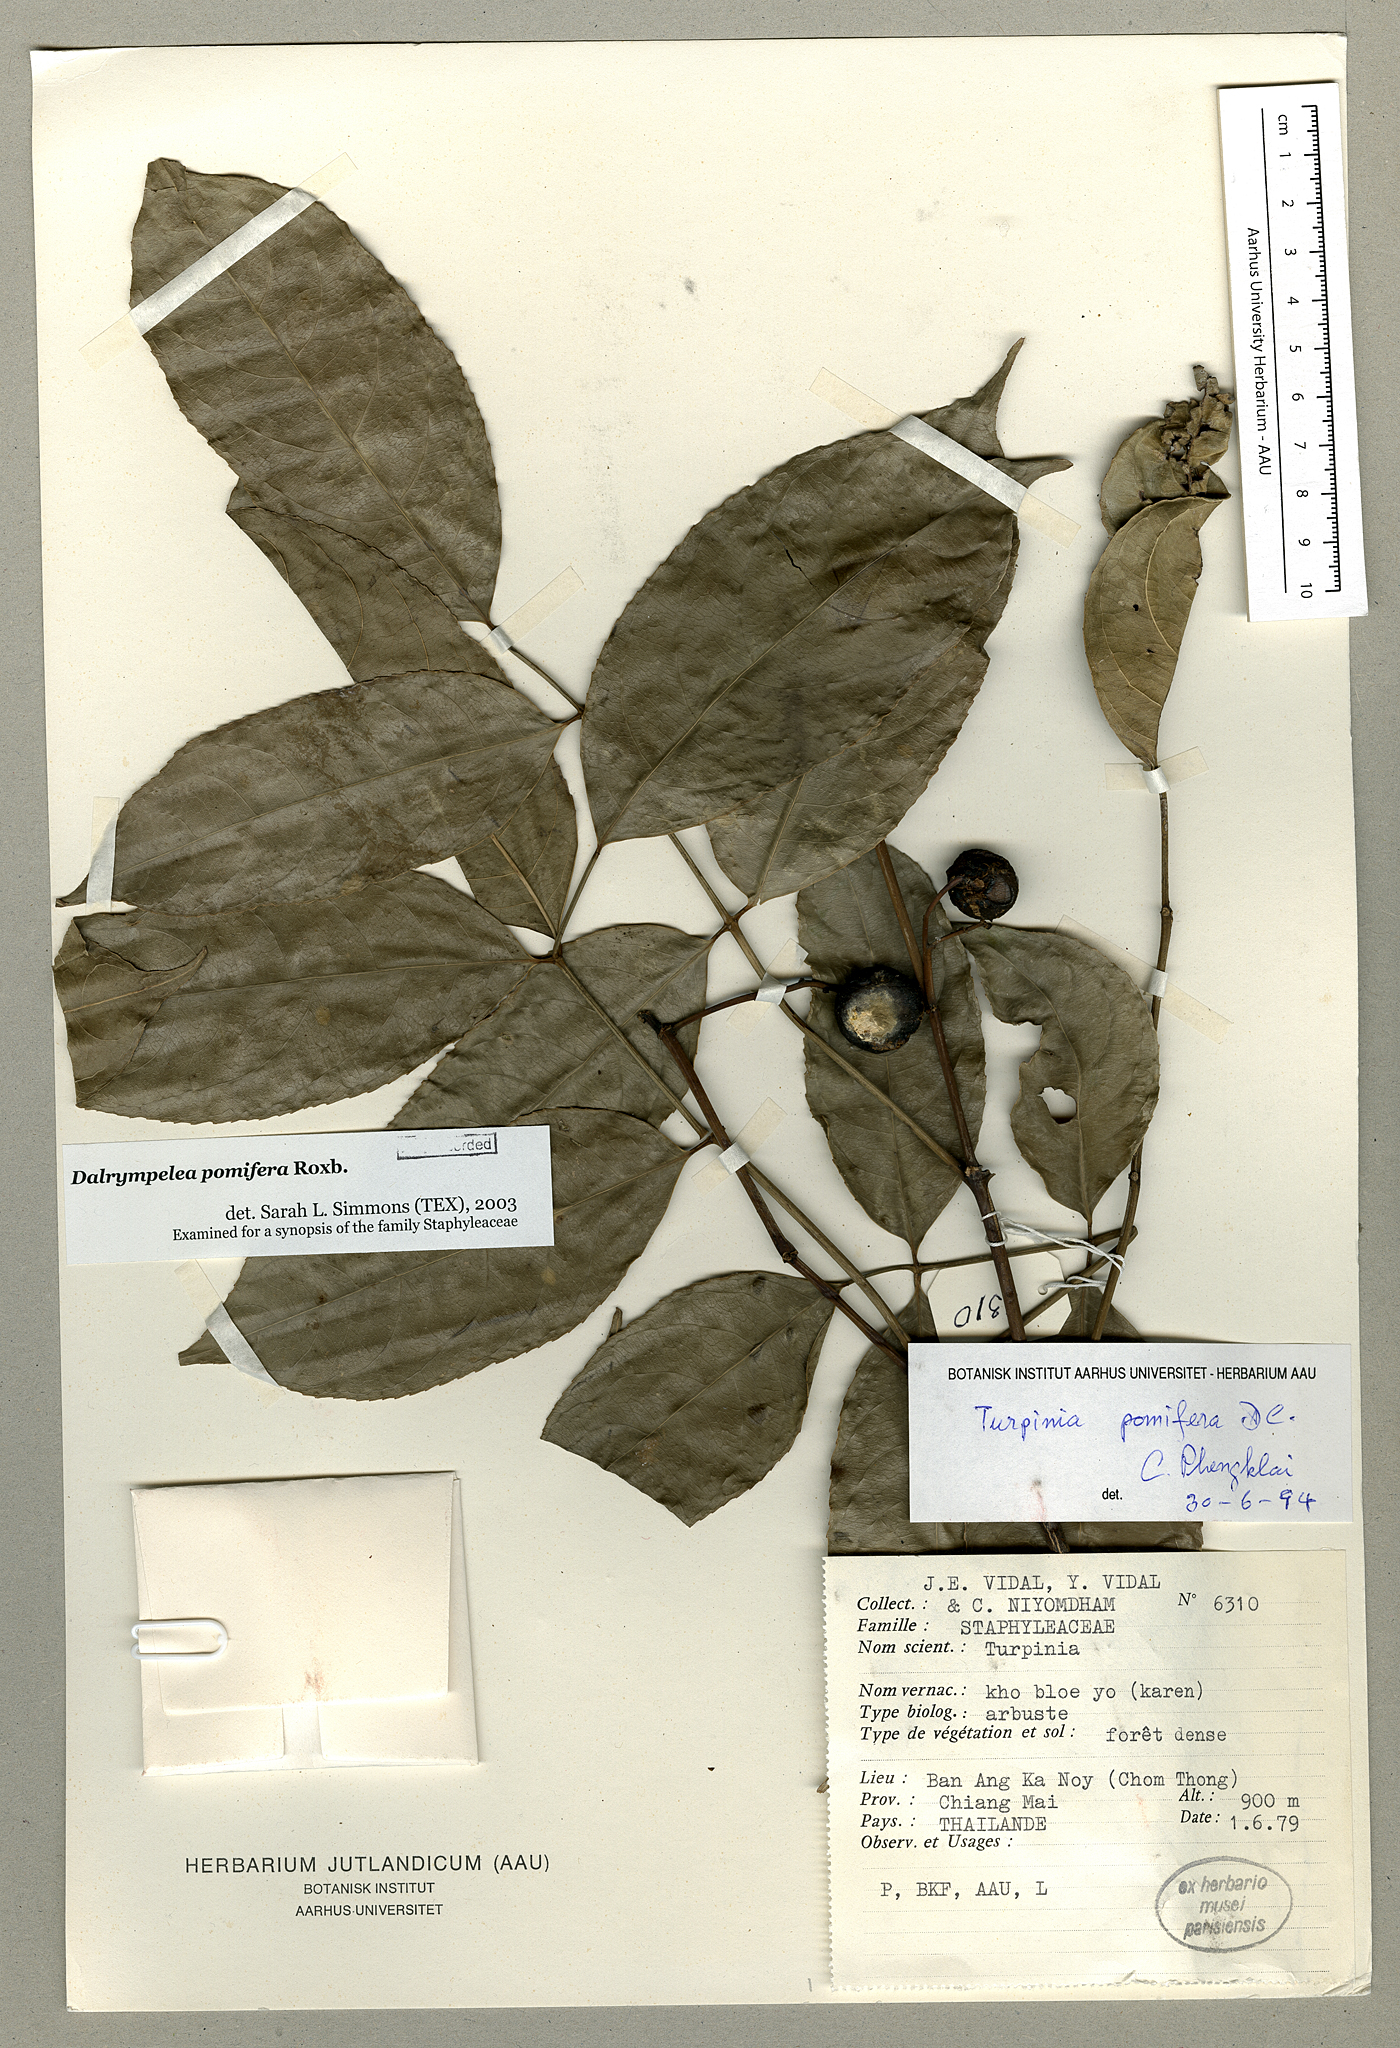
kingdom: Plantae
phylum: Tracheophyta
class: Magnoliopsida
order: Crossosomatales
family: Staphyleaceae
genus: Dalrympelea
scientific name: Dalrympelea pomifera
